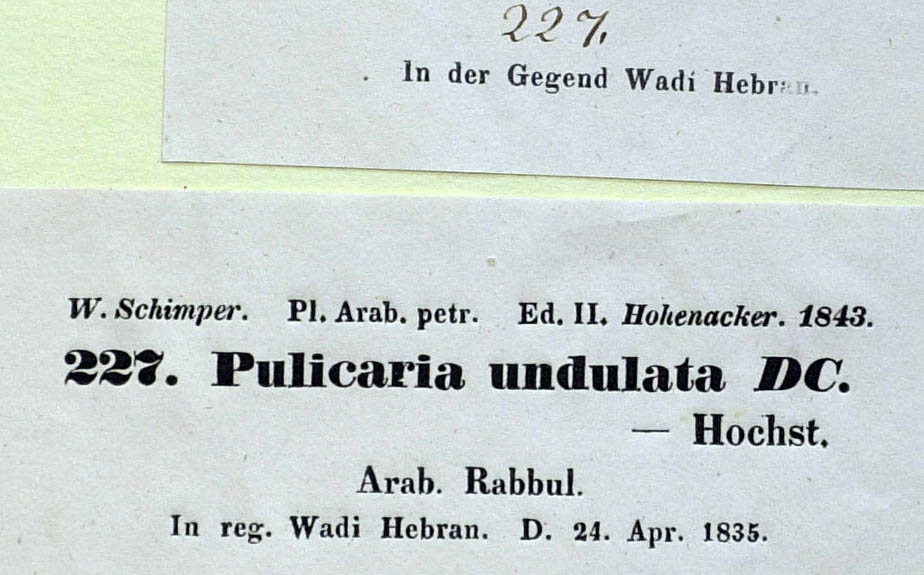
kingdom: Plantae
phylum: Tracheophyta
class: Magnoliopsida
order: Asterales
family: Asteraceae
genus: Pulicaria
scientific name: Pulicaria incisa
